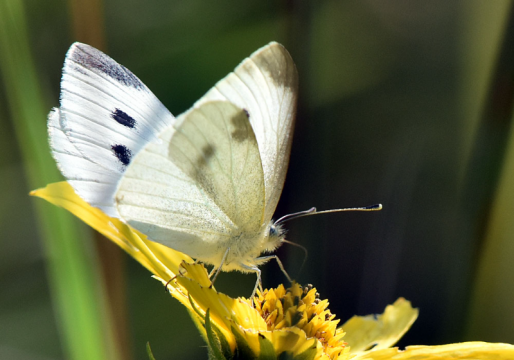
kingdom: Animalia
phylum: Arthropoda
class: Insecta
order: Lepidoptera
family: Pieridae
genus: Pieris
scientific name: Pieris rapae
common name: Cabbage White
